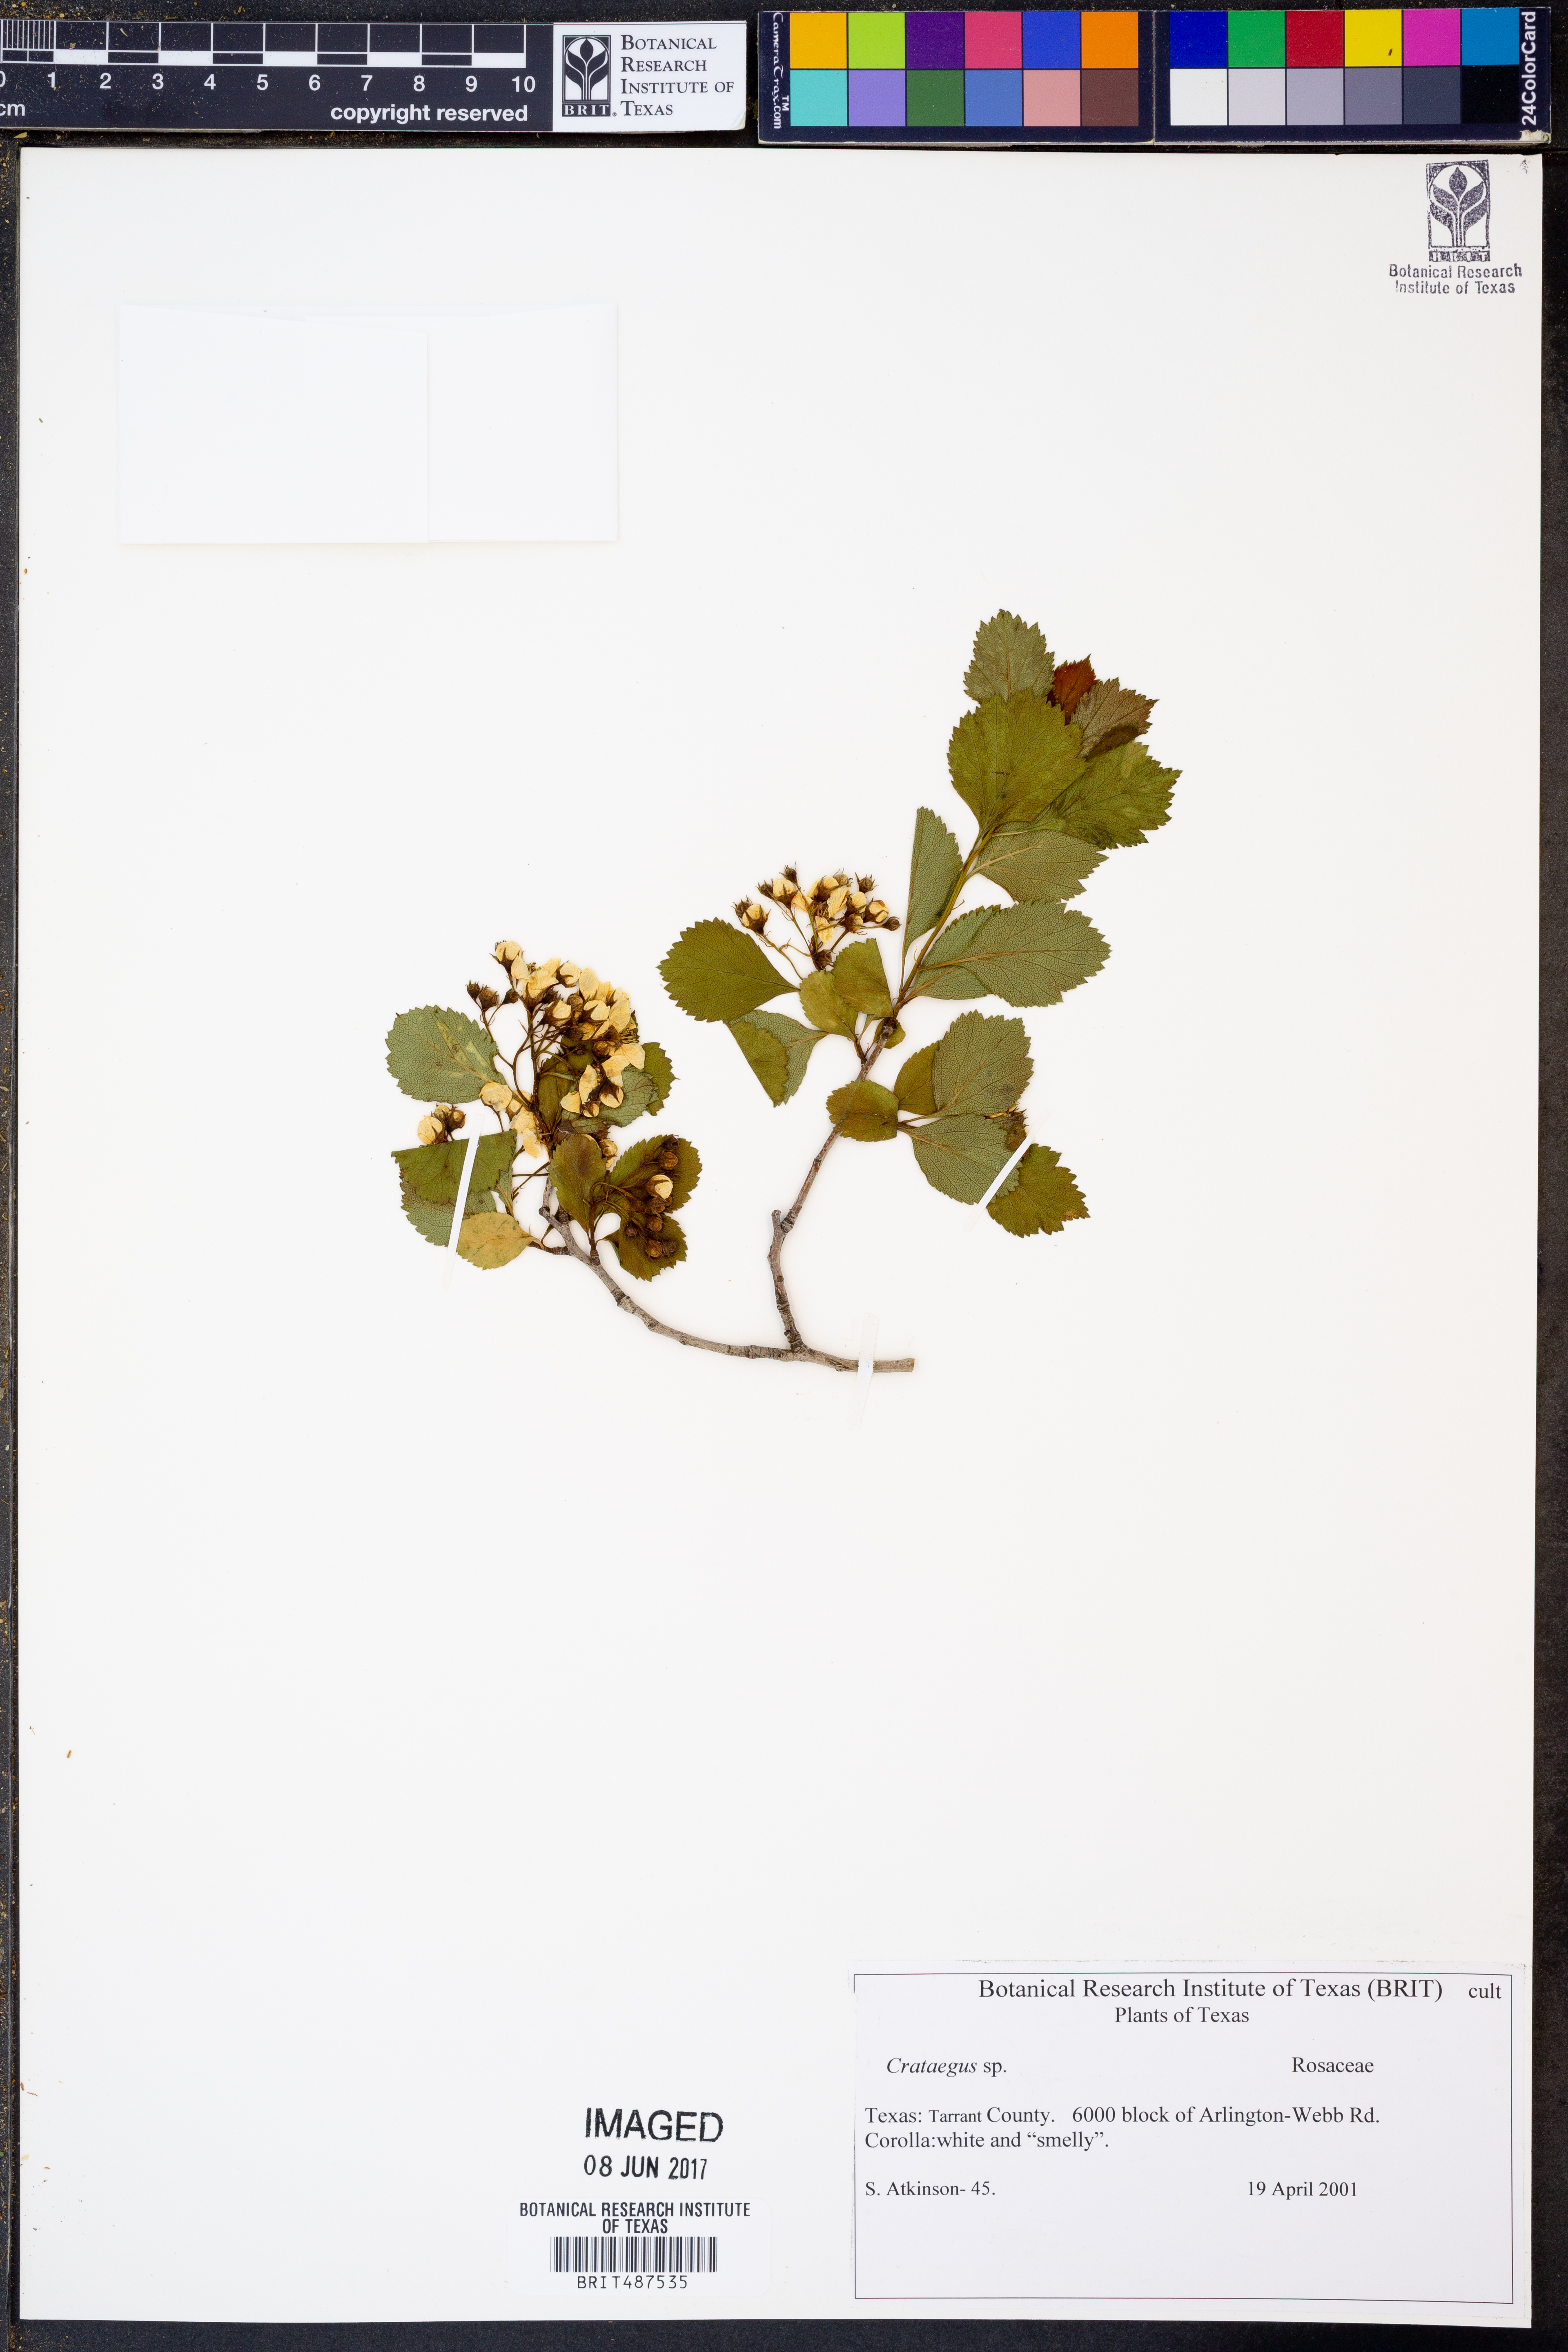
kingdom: Plantae
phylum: Tracheophyta
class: Magnoliopsida
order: Rosales
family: Rosaceae
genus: Crataegus
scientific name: Crataegus
